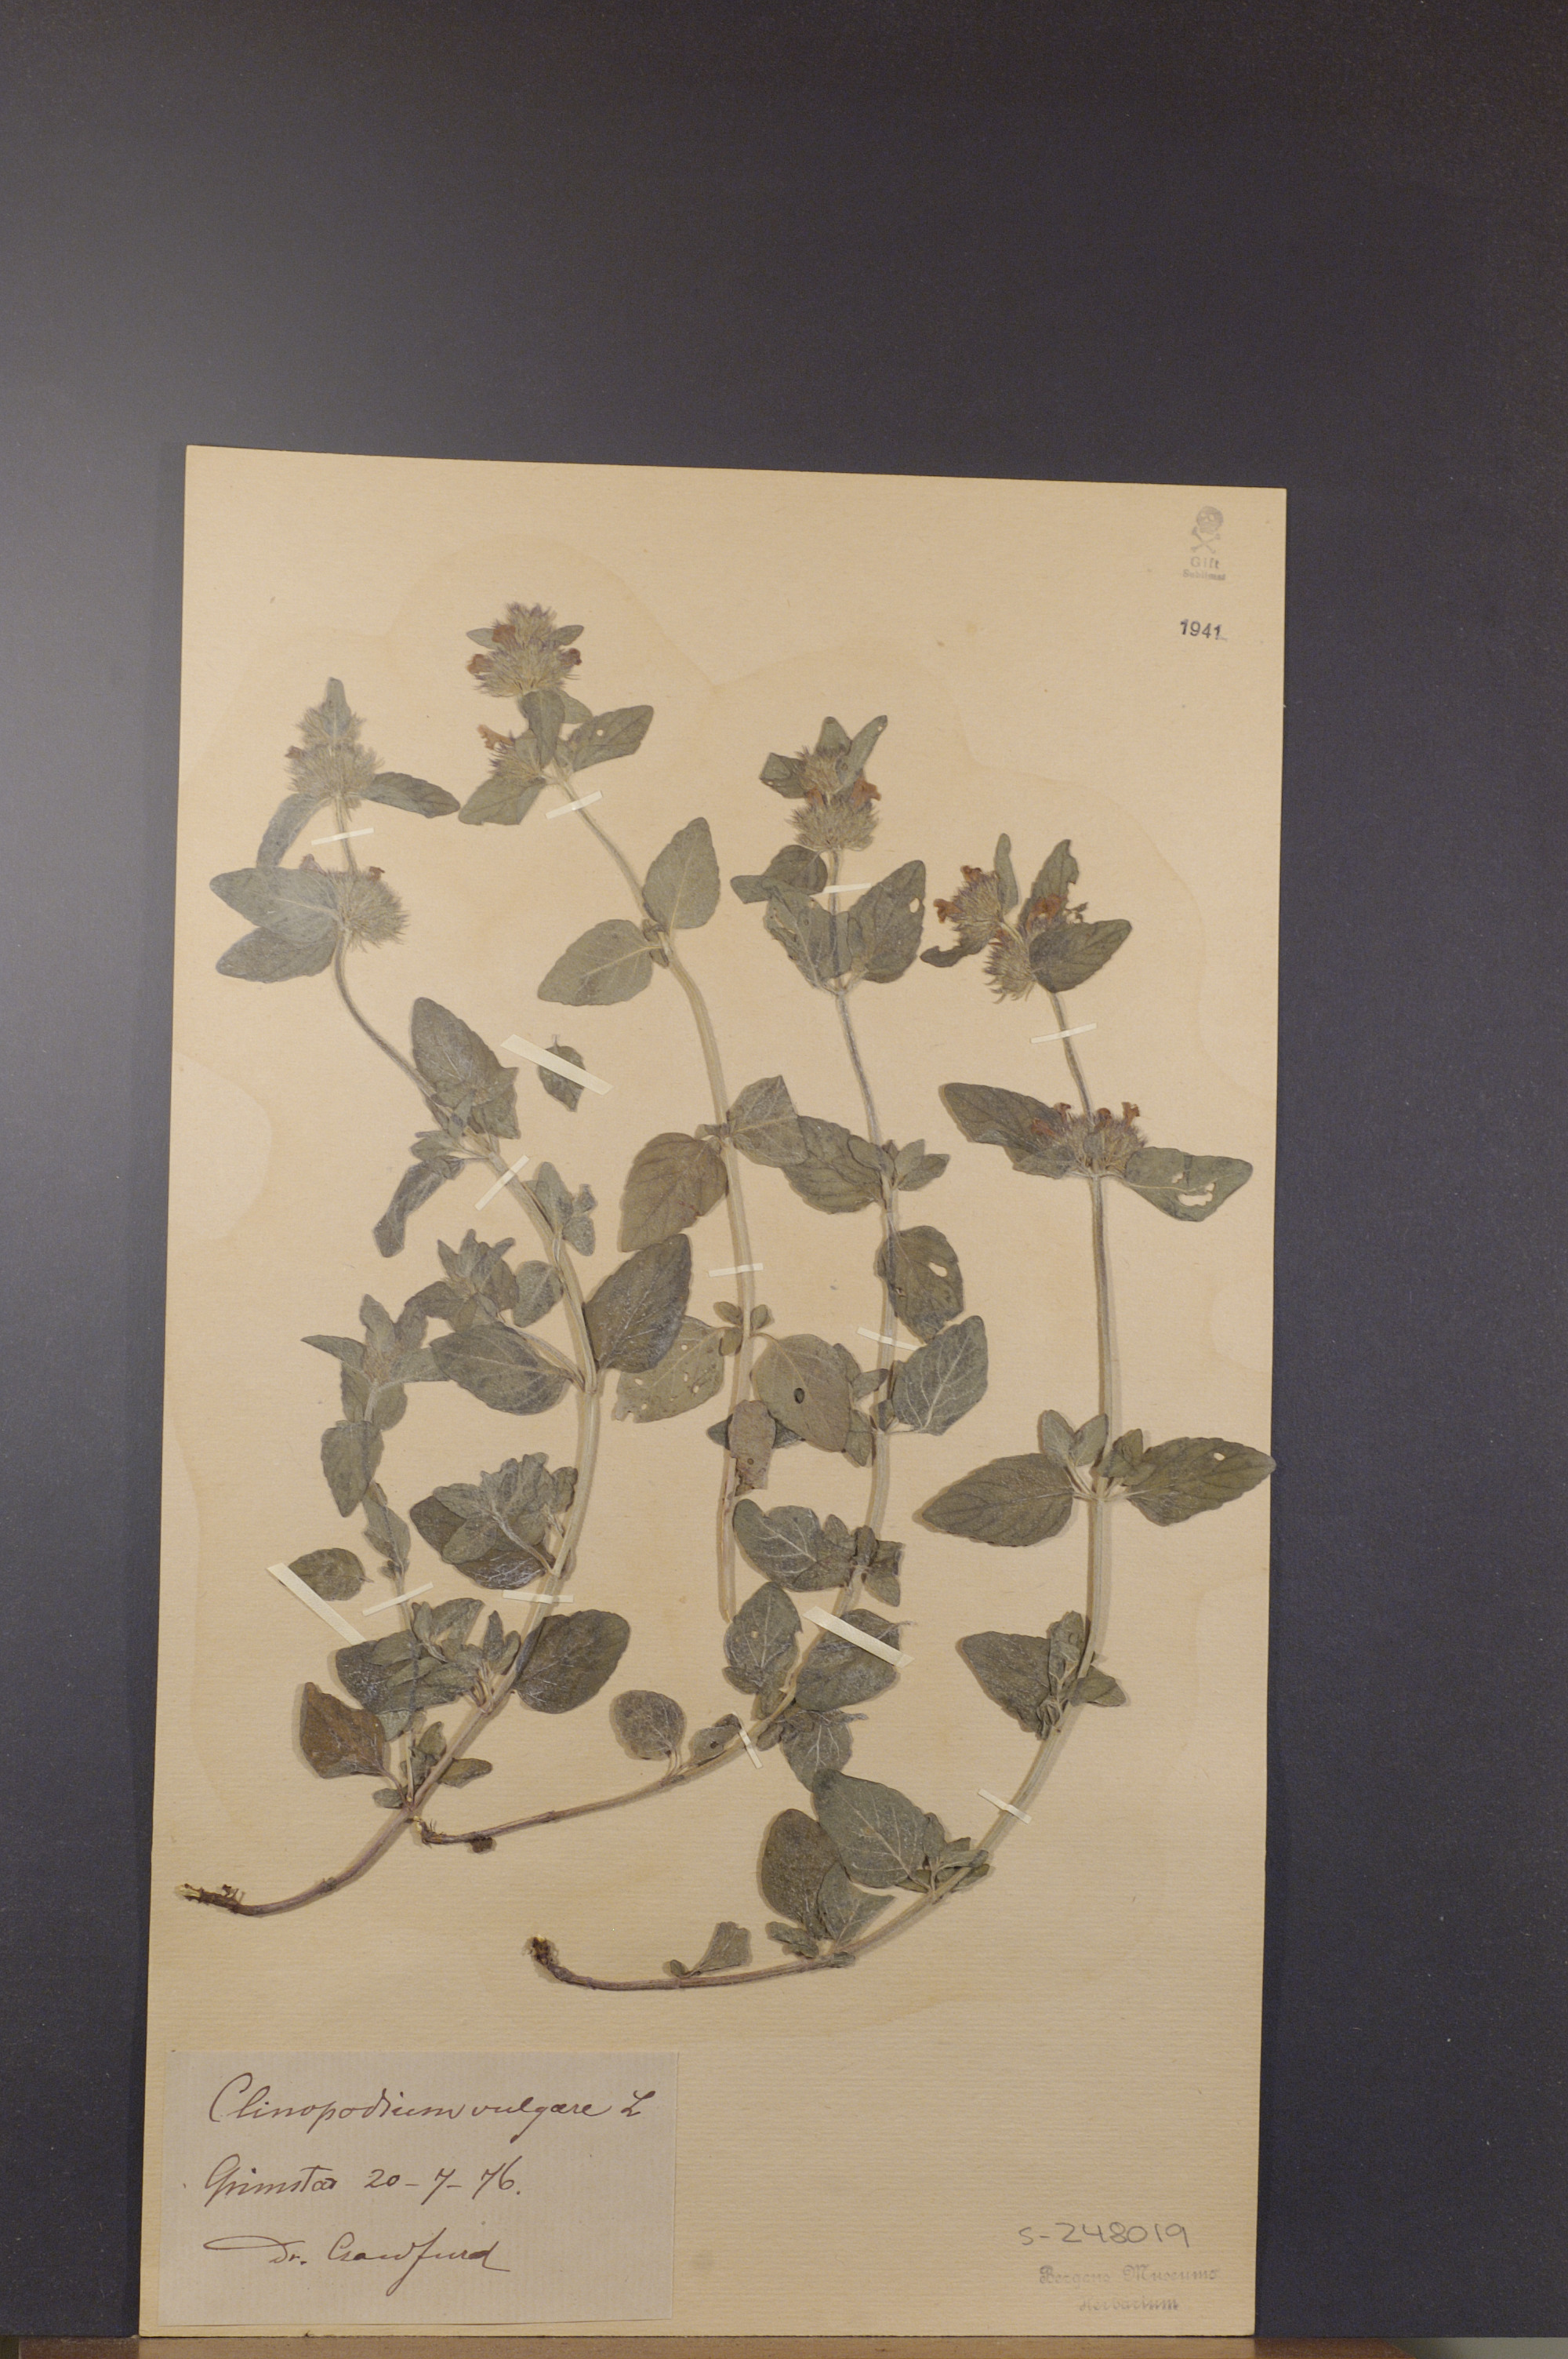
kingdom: Plantae
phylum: Tracheophyta
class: Magnoliopsida
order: Lamiales
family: Lamiaceae
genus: Clinopodium
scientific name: Clinopodium vulgare
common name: Wild basil
